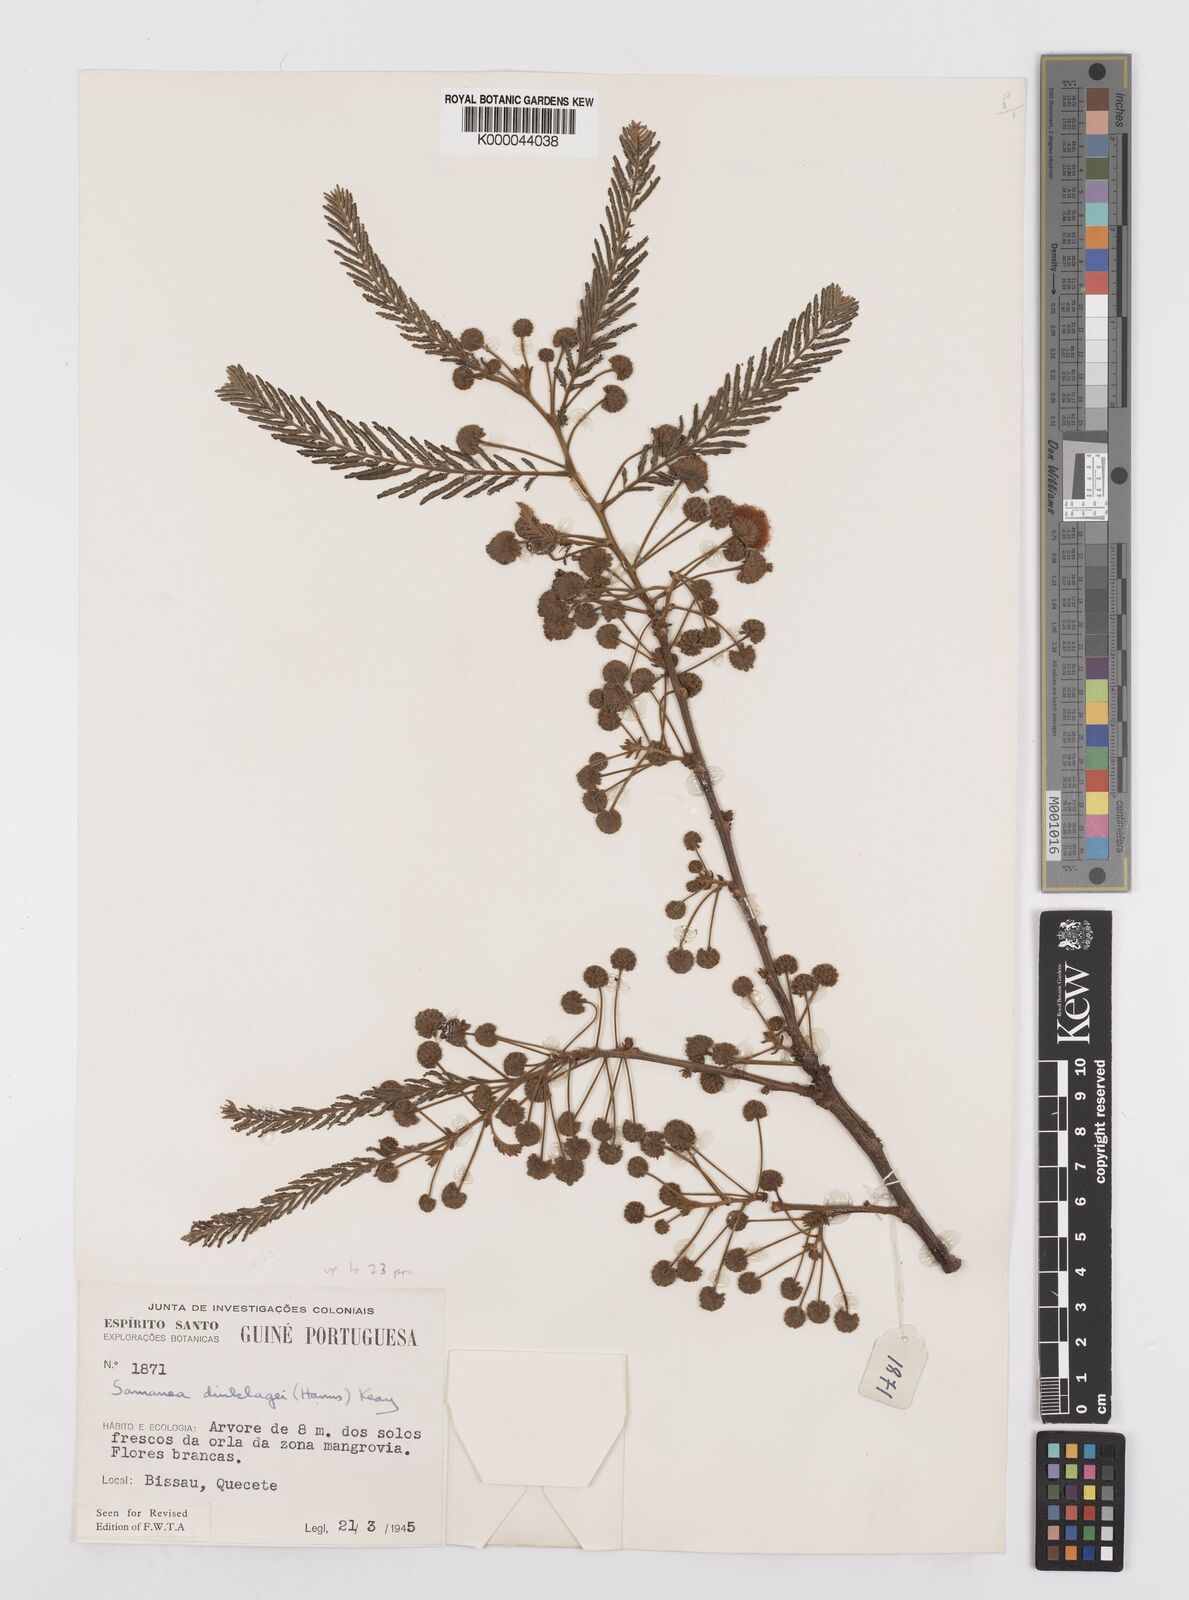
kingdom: Plantae
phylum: Tracheophyta
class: Magnoliopsida
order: Fabales
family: Fabaceae
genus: Albizia
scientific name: Albizia dinklagei
